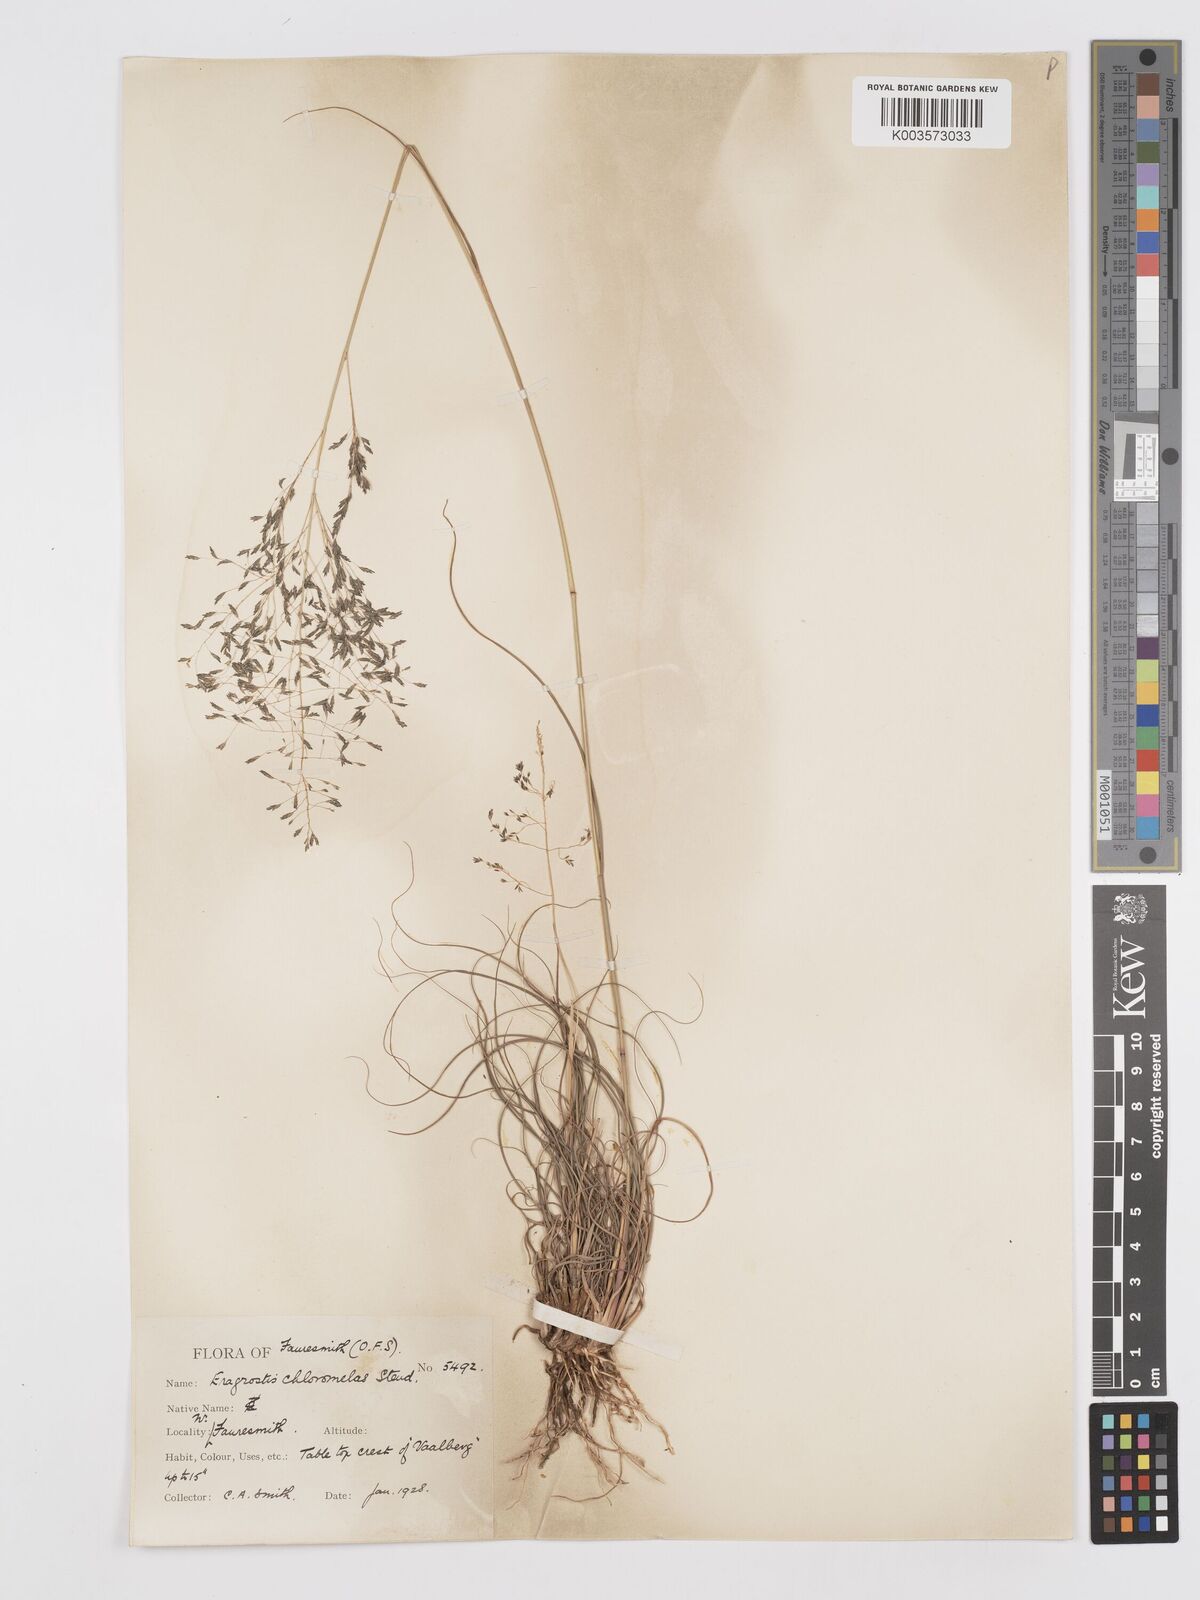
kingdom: Plantae
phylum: Tracheophyta
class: Liliopsida
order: Poales
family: Poaceae
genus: Eragrostis
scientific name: Eragrostis curvula
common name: African love-grass
